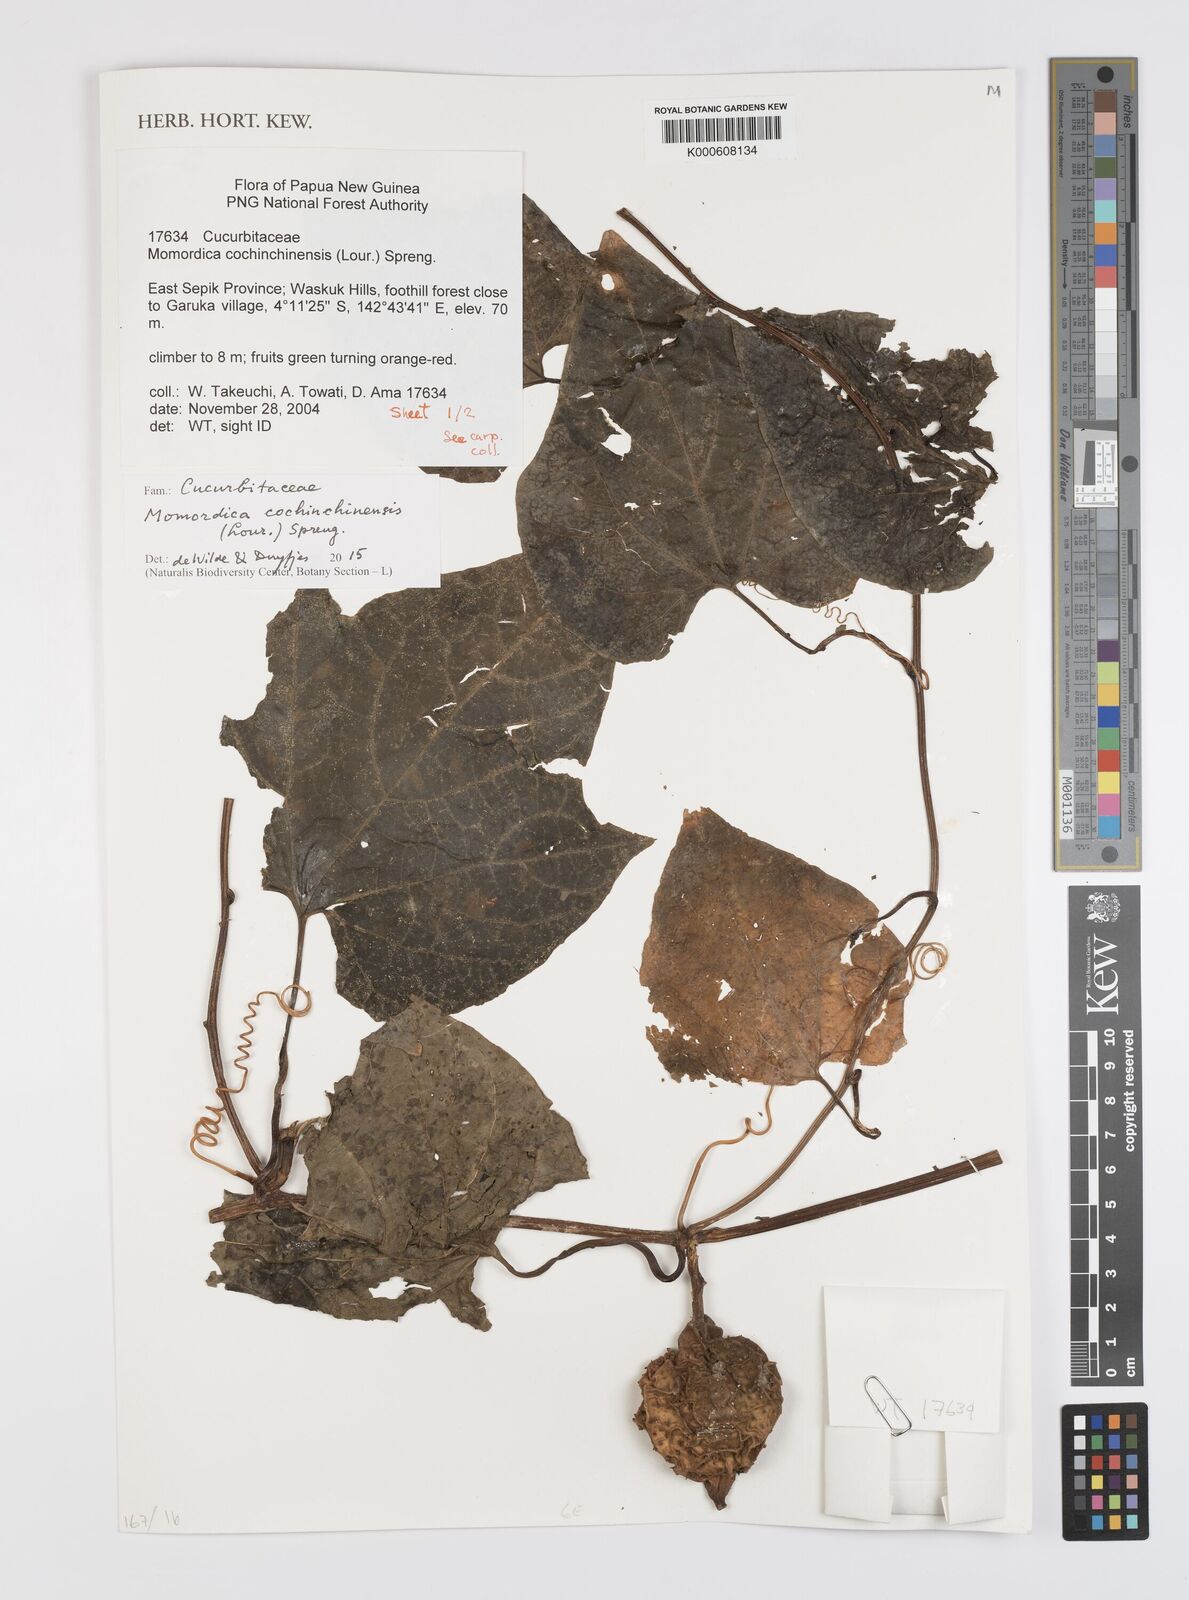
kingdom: Plantae
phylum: Tracheophyta
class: Magnoliopsida
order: Cucurbitales
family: Cucurbitaceae
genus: Momordica
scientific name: Momordica cochinchinensis
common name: Chinese bitter-cucumber
